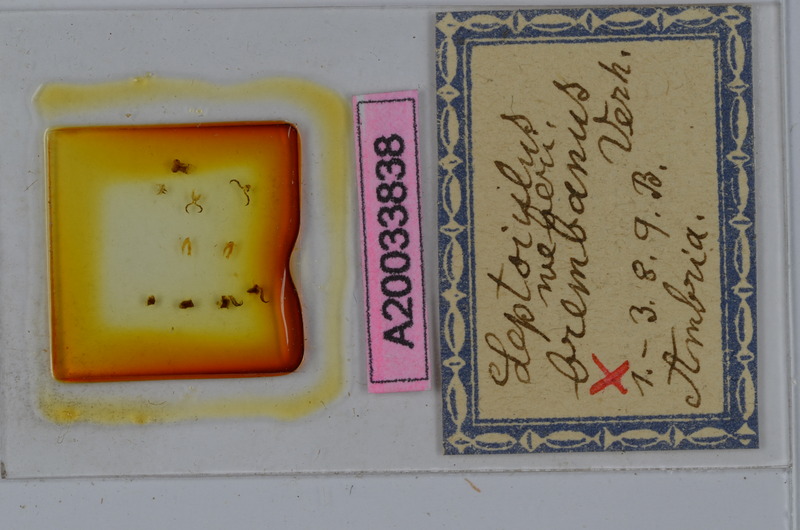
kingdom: Animalia
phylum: Arthropoda
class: Diplopoda
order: Julida
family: Julidae
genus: Leptoiulus
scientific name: Leptoiulus weberi
